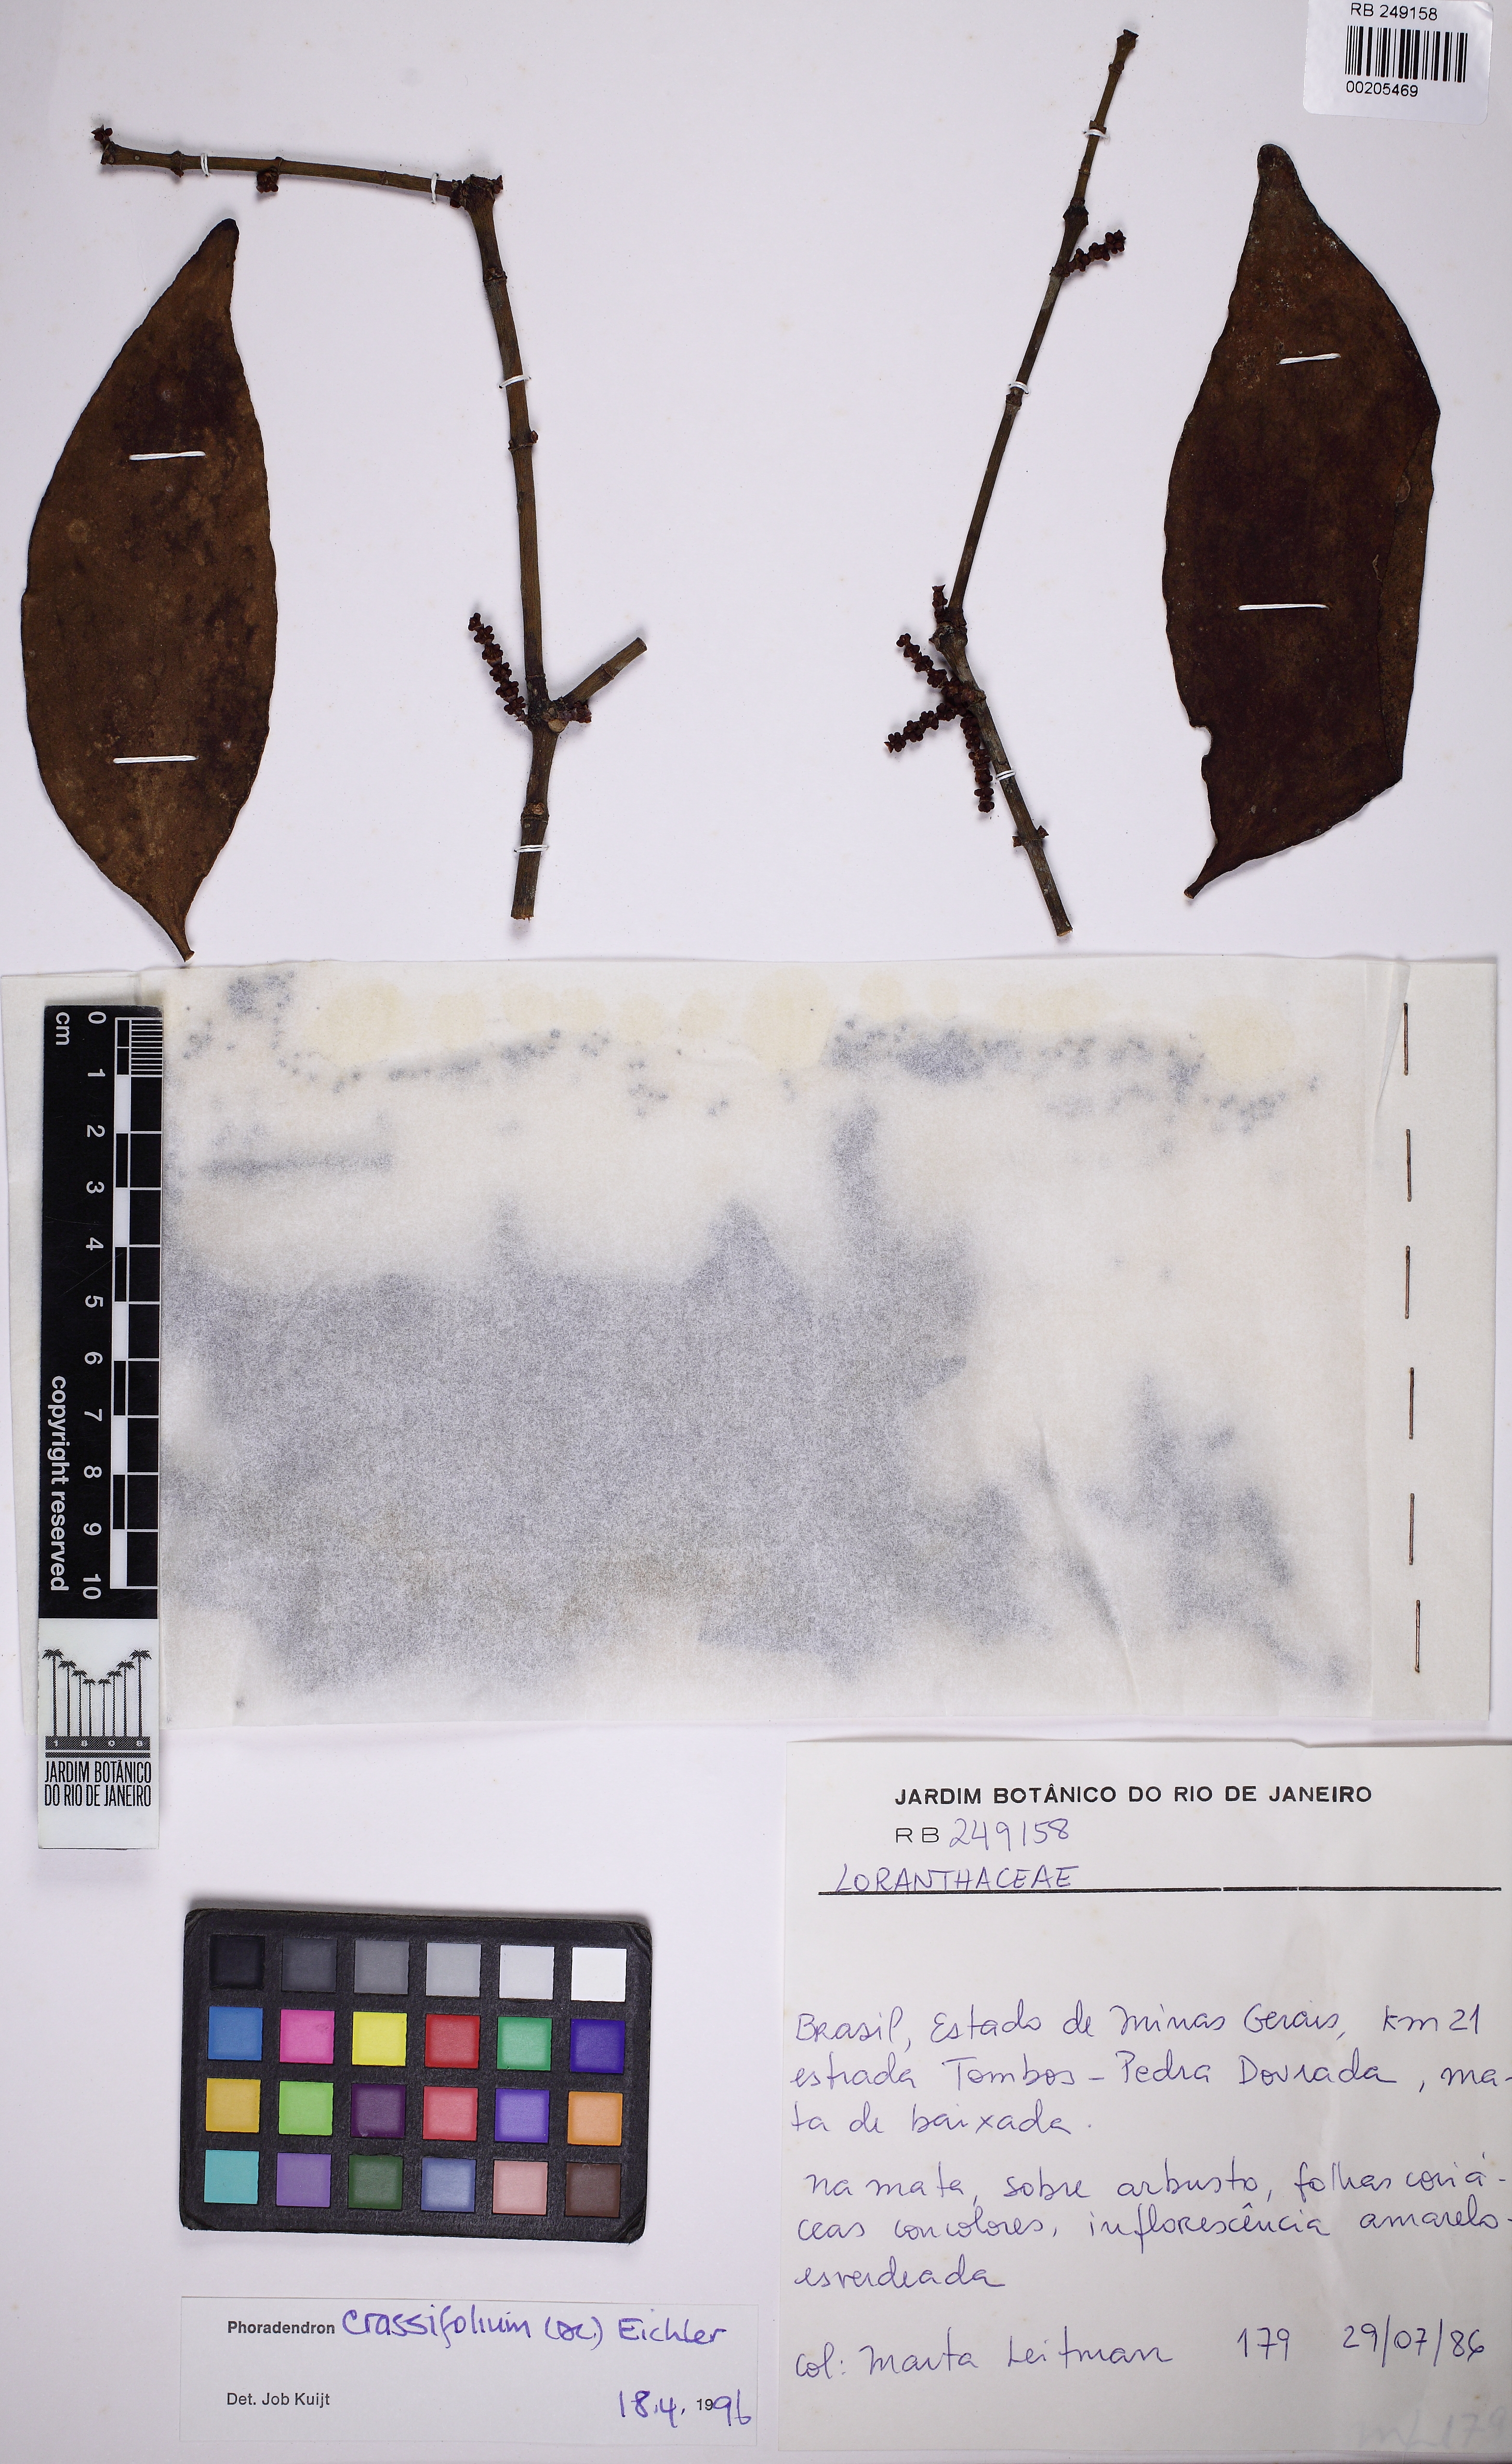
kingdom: Plantae
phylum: Tracheophyta
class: Magnoliopsida
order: Santalales
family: Viscaceae
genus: Phoradendron
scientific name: Phoradendron crassifolium
